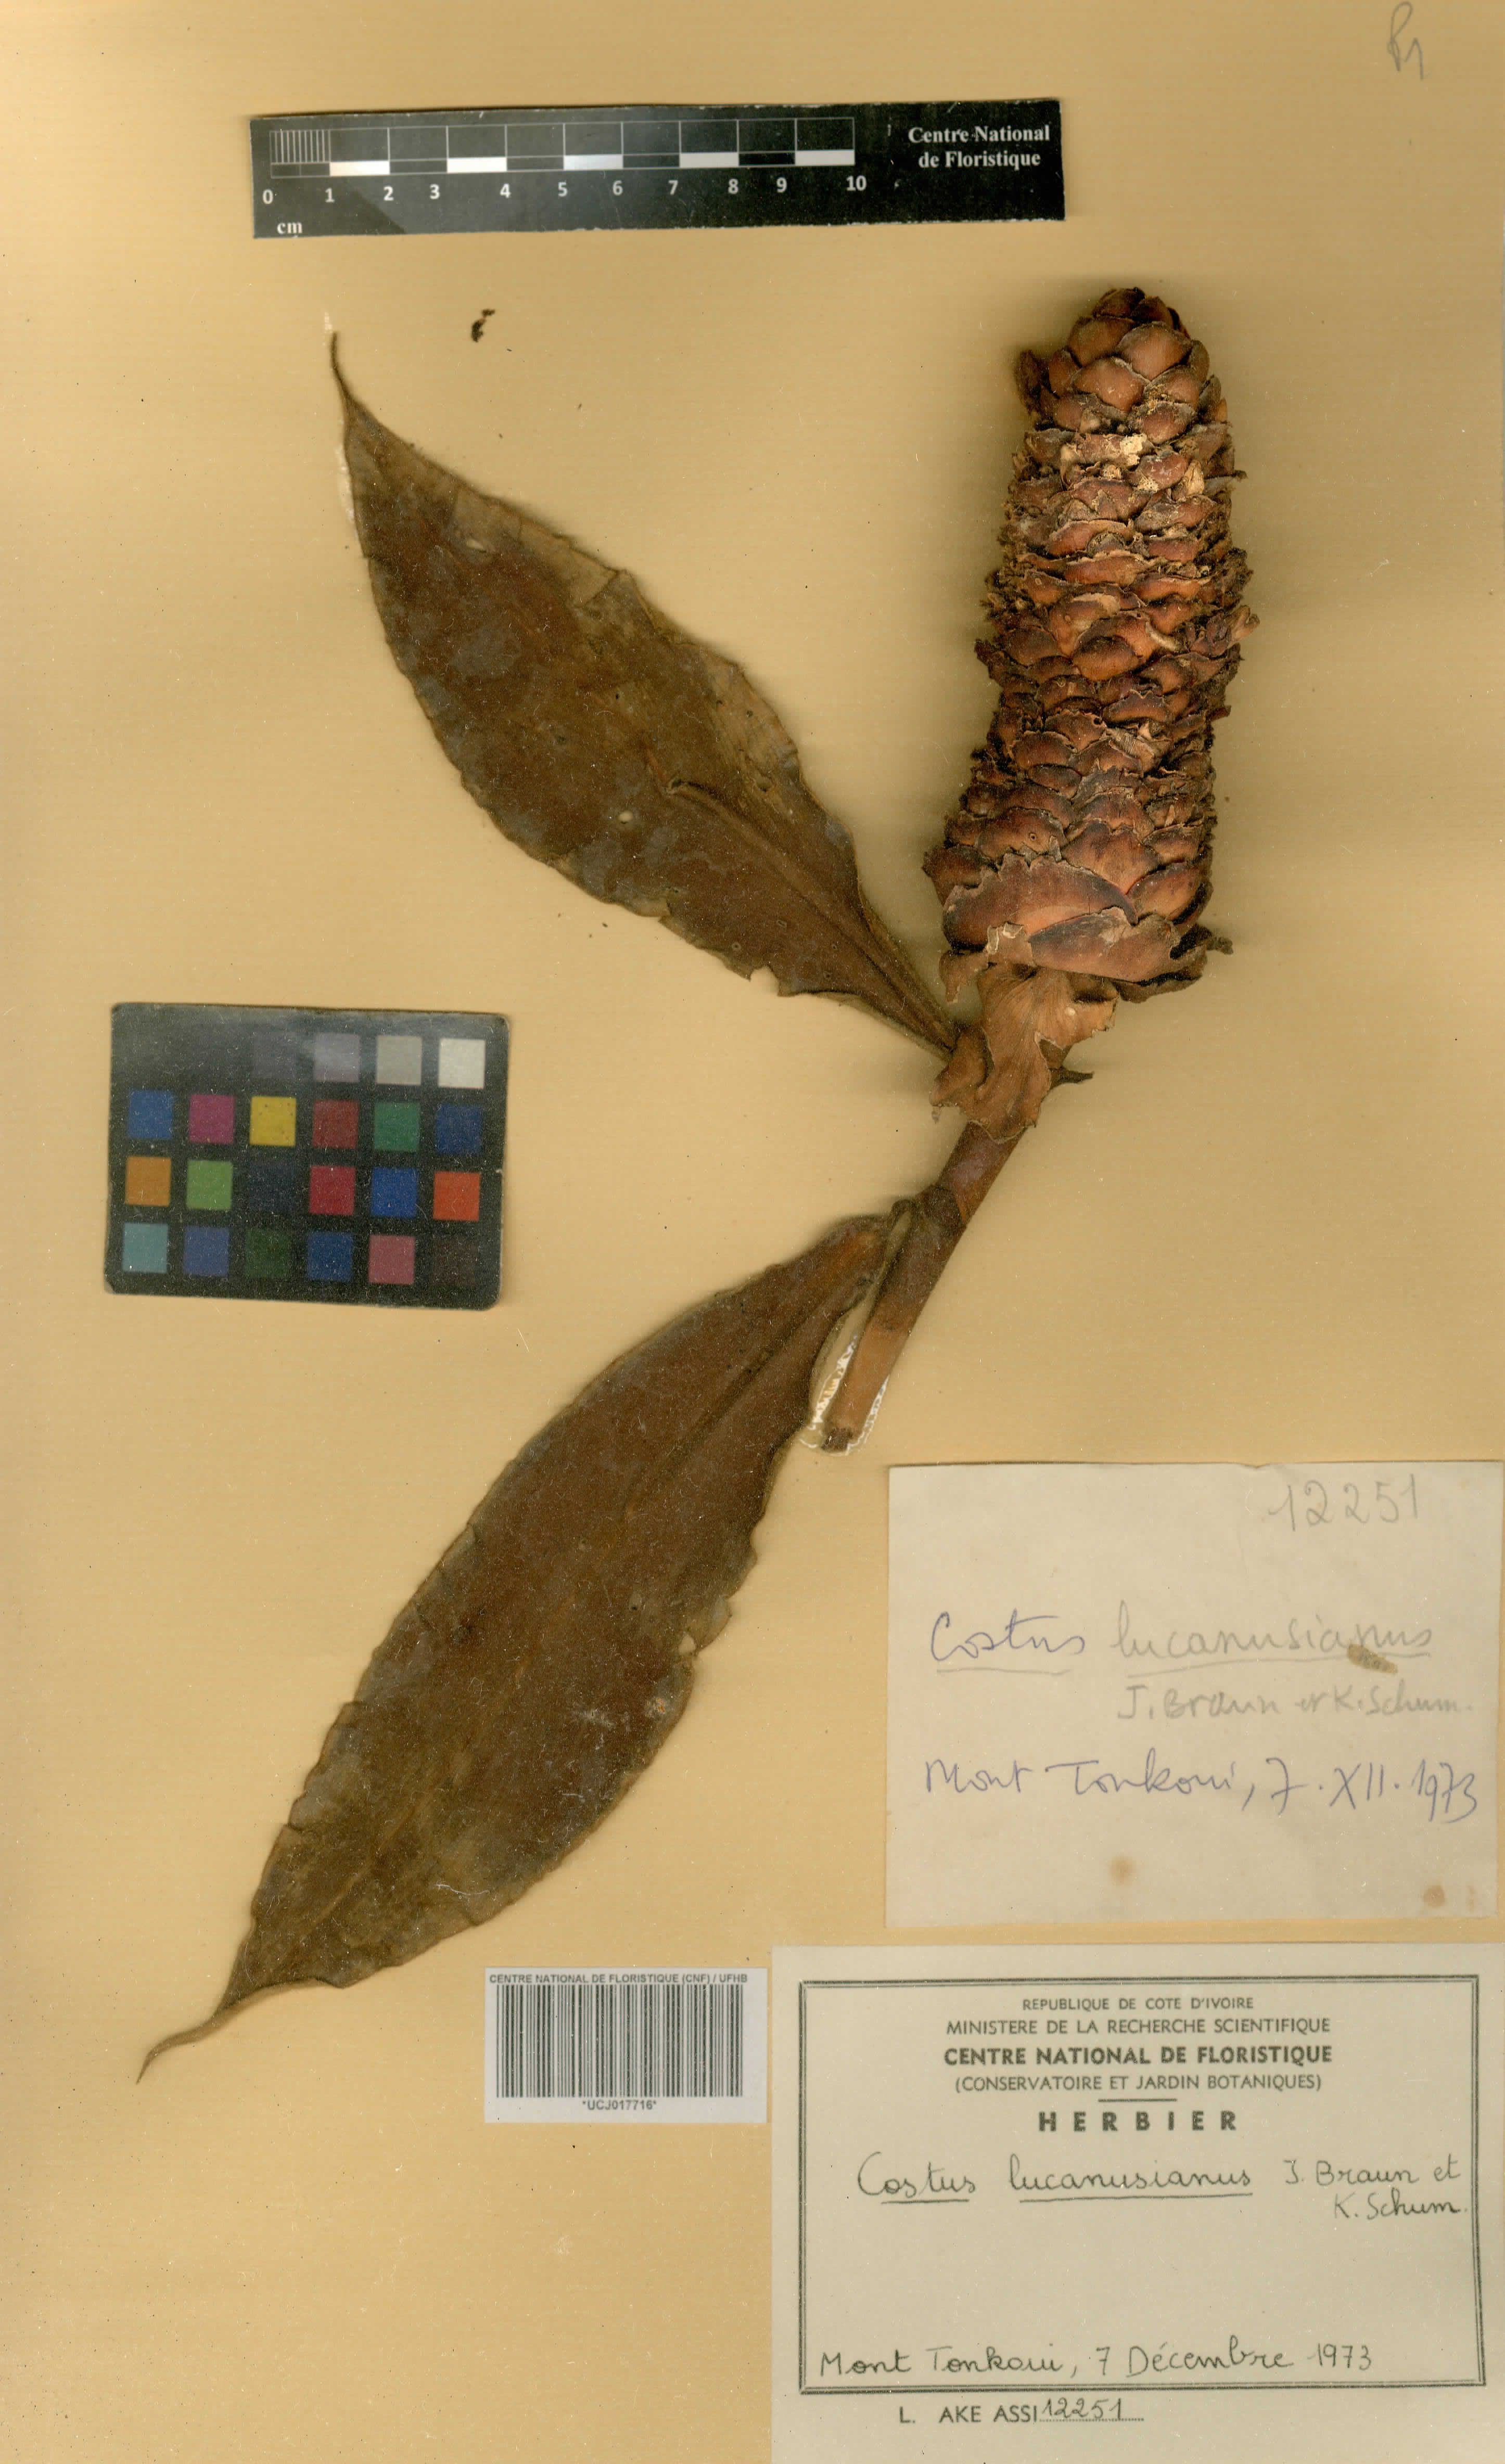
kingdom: Plantae
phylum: Tracheophyta
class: Liliopsida
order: Zingiberales
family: Costaceae
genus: Costus
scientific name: Costus lucanusianus
